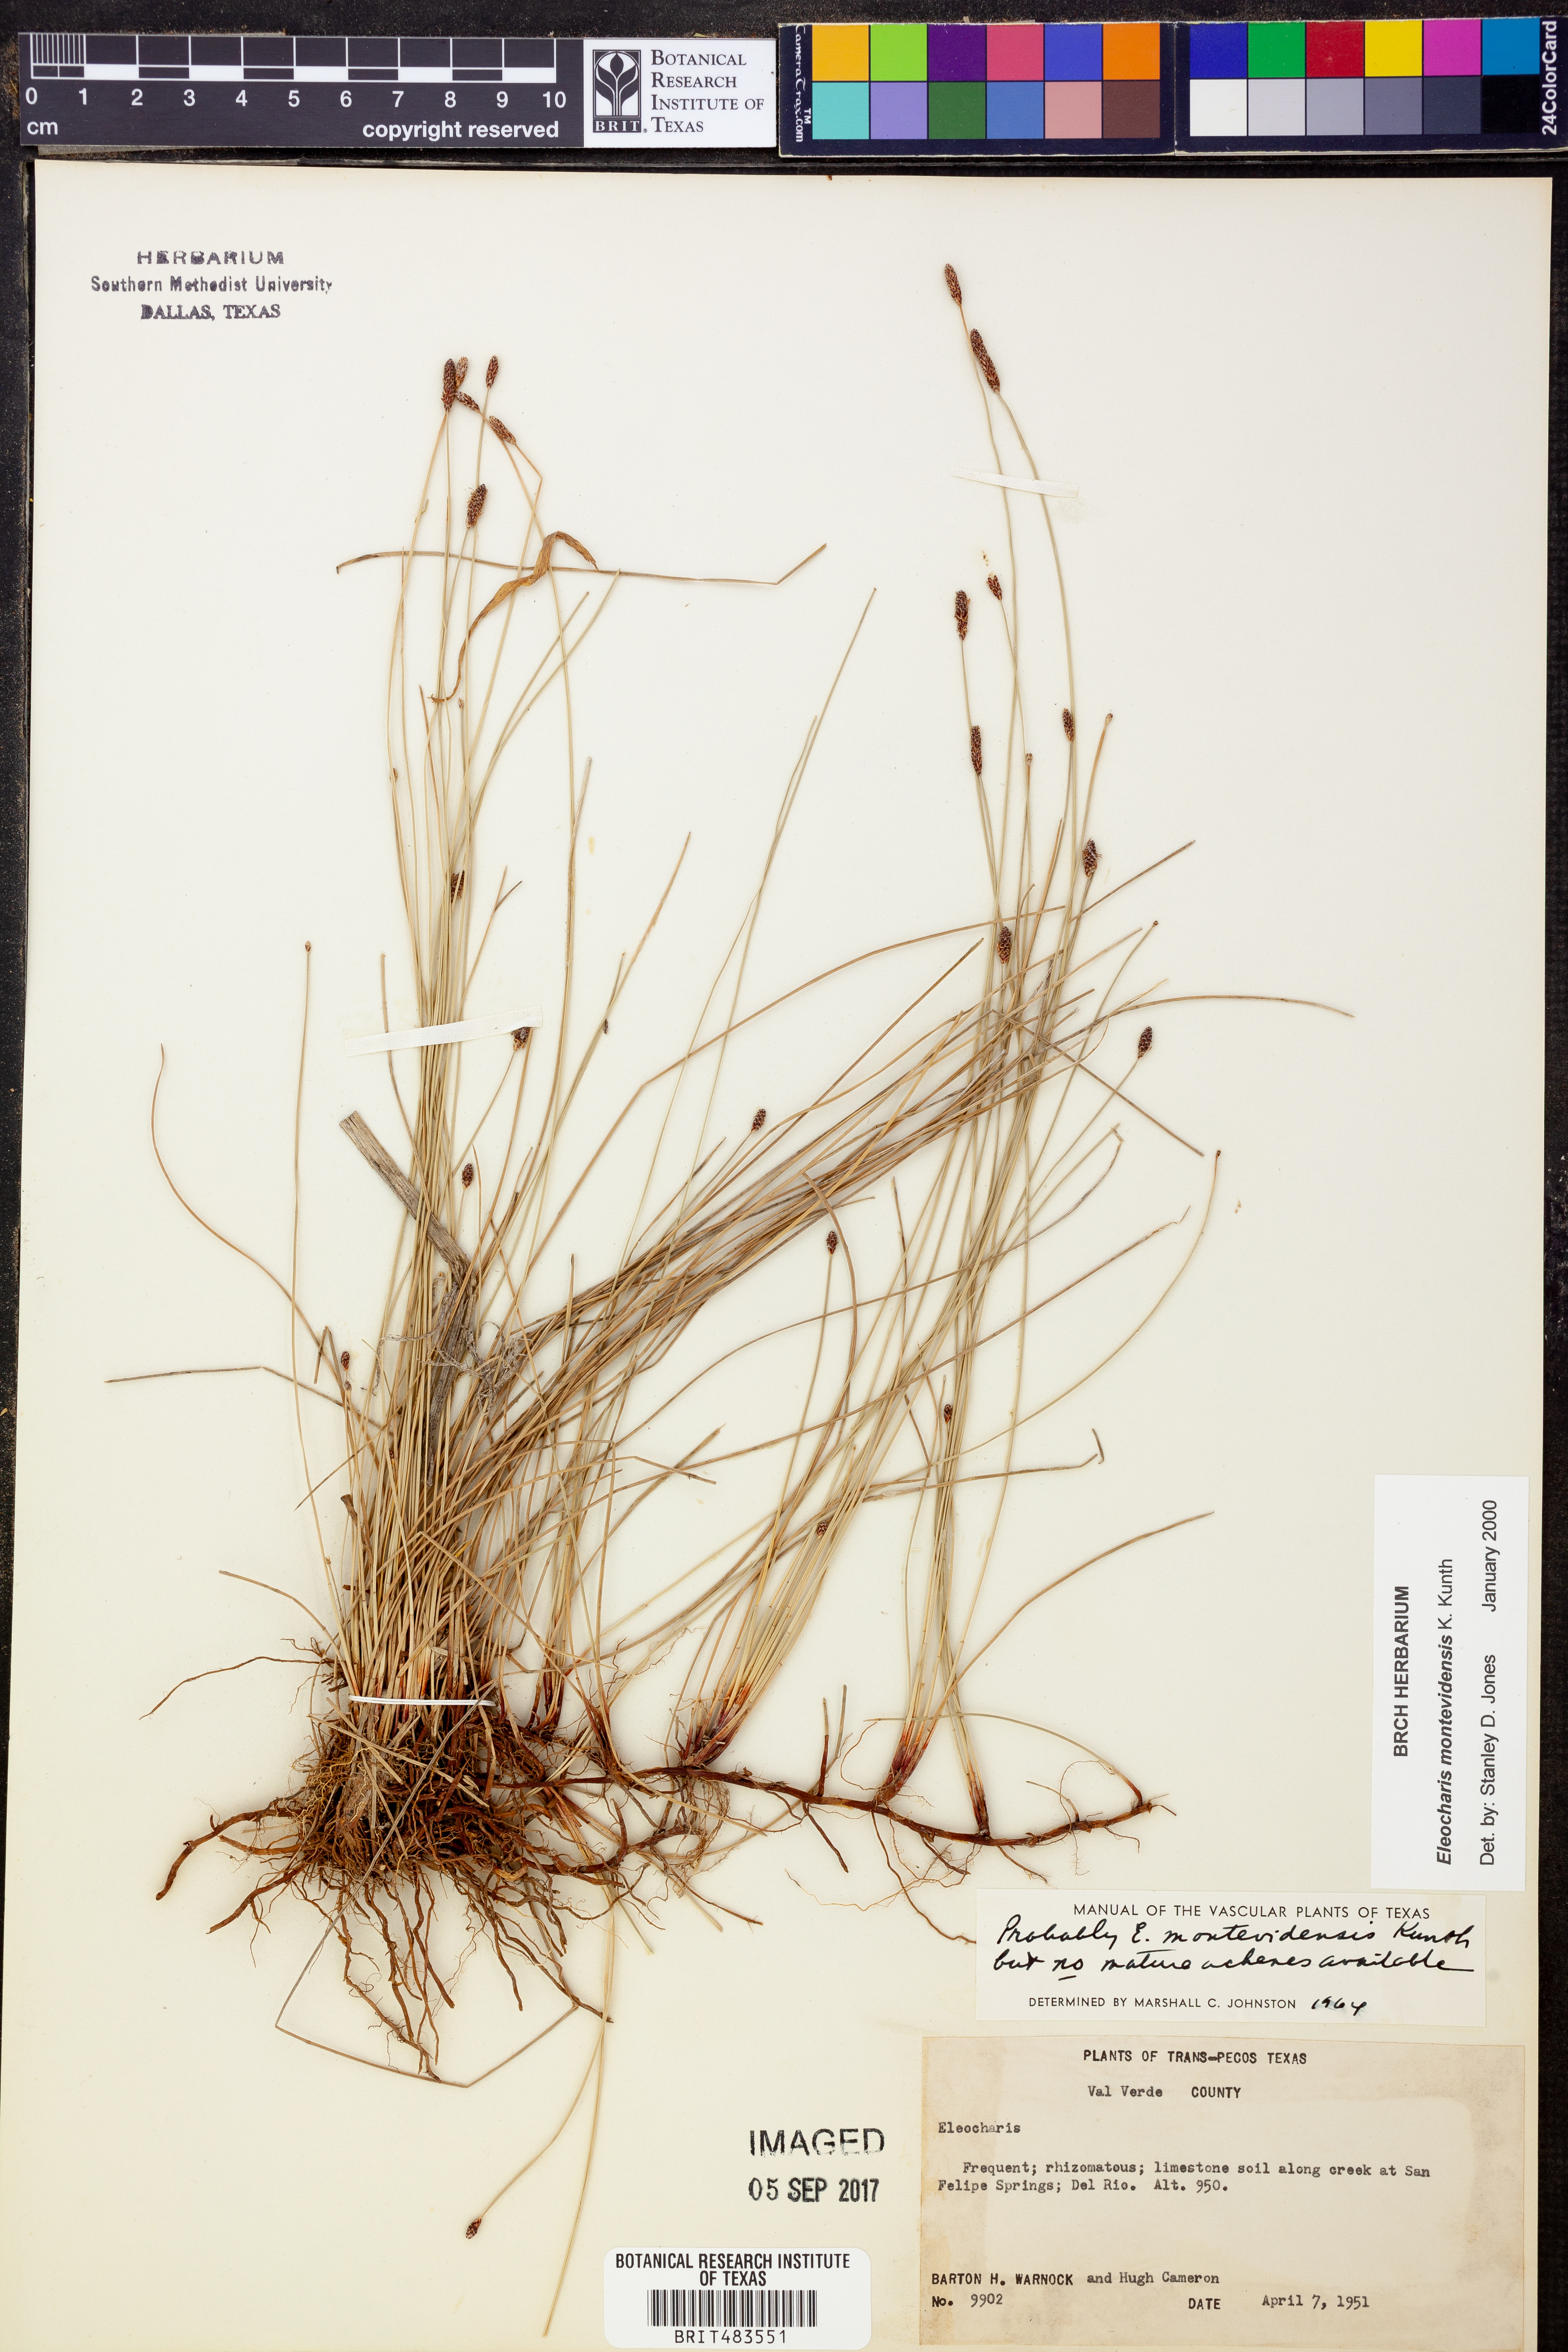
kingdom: Plantae
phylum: Tracheophyta
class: Liliopsida
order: Poales
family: Cyperaceae
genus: Eleocharis
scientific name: Eleocharis montevidensis
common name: Sand spike-rush
